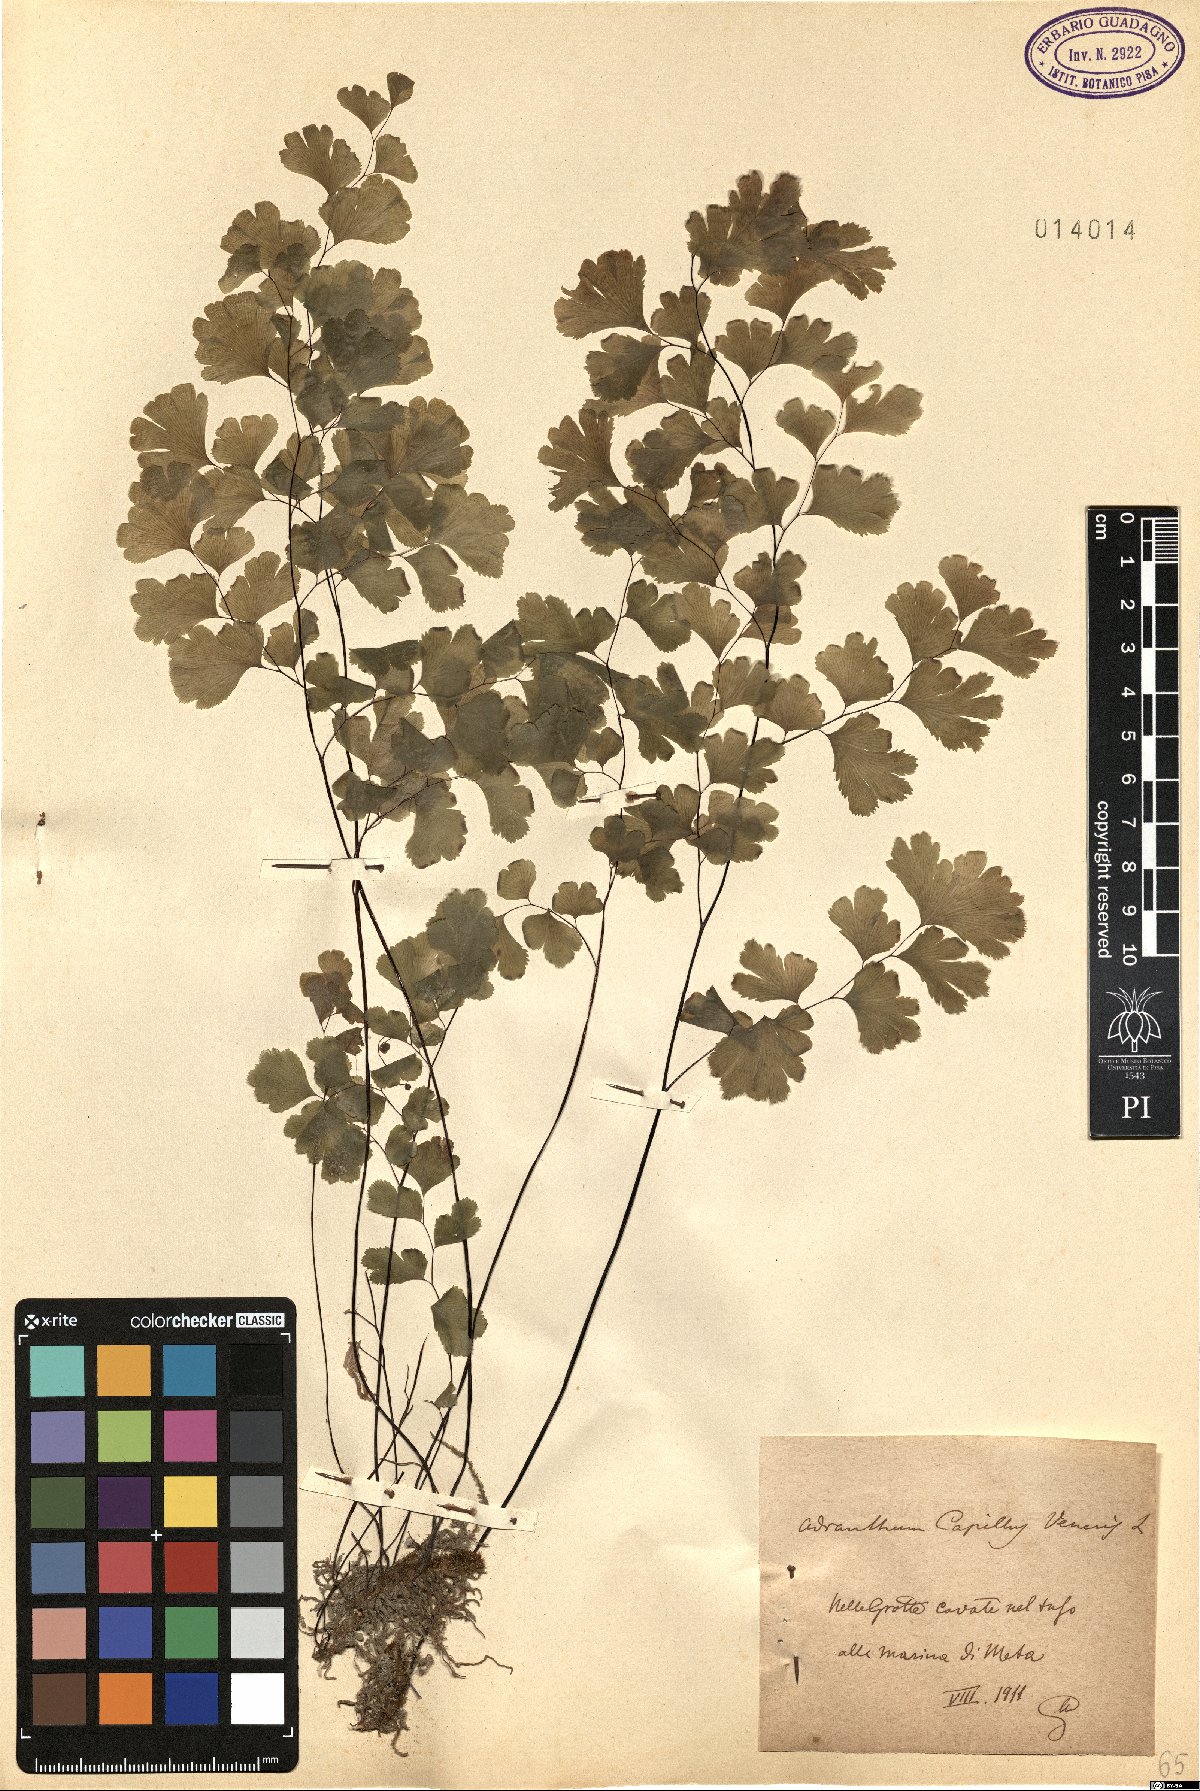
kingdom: Plantae
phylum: Tracheophyta
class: Polypodiopsida
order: Polypodiales
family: Pteridaceae
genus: Adiantum
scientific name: Adiantum capillus-veneris
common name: Maidenhair fern
